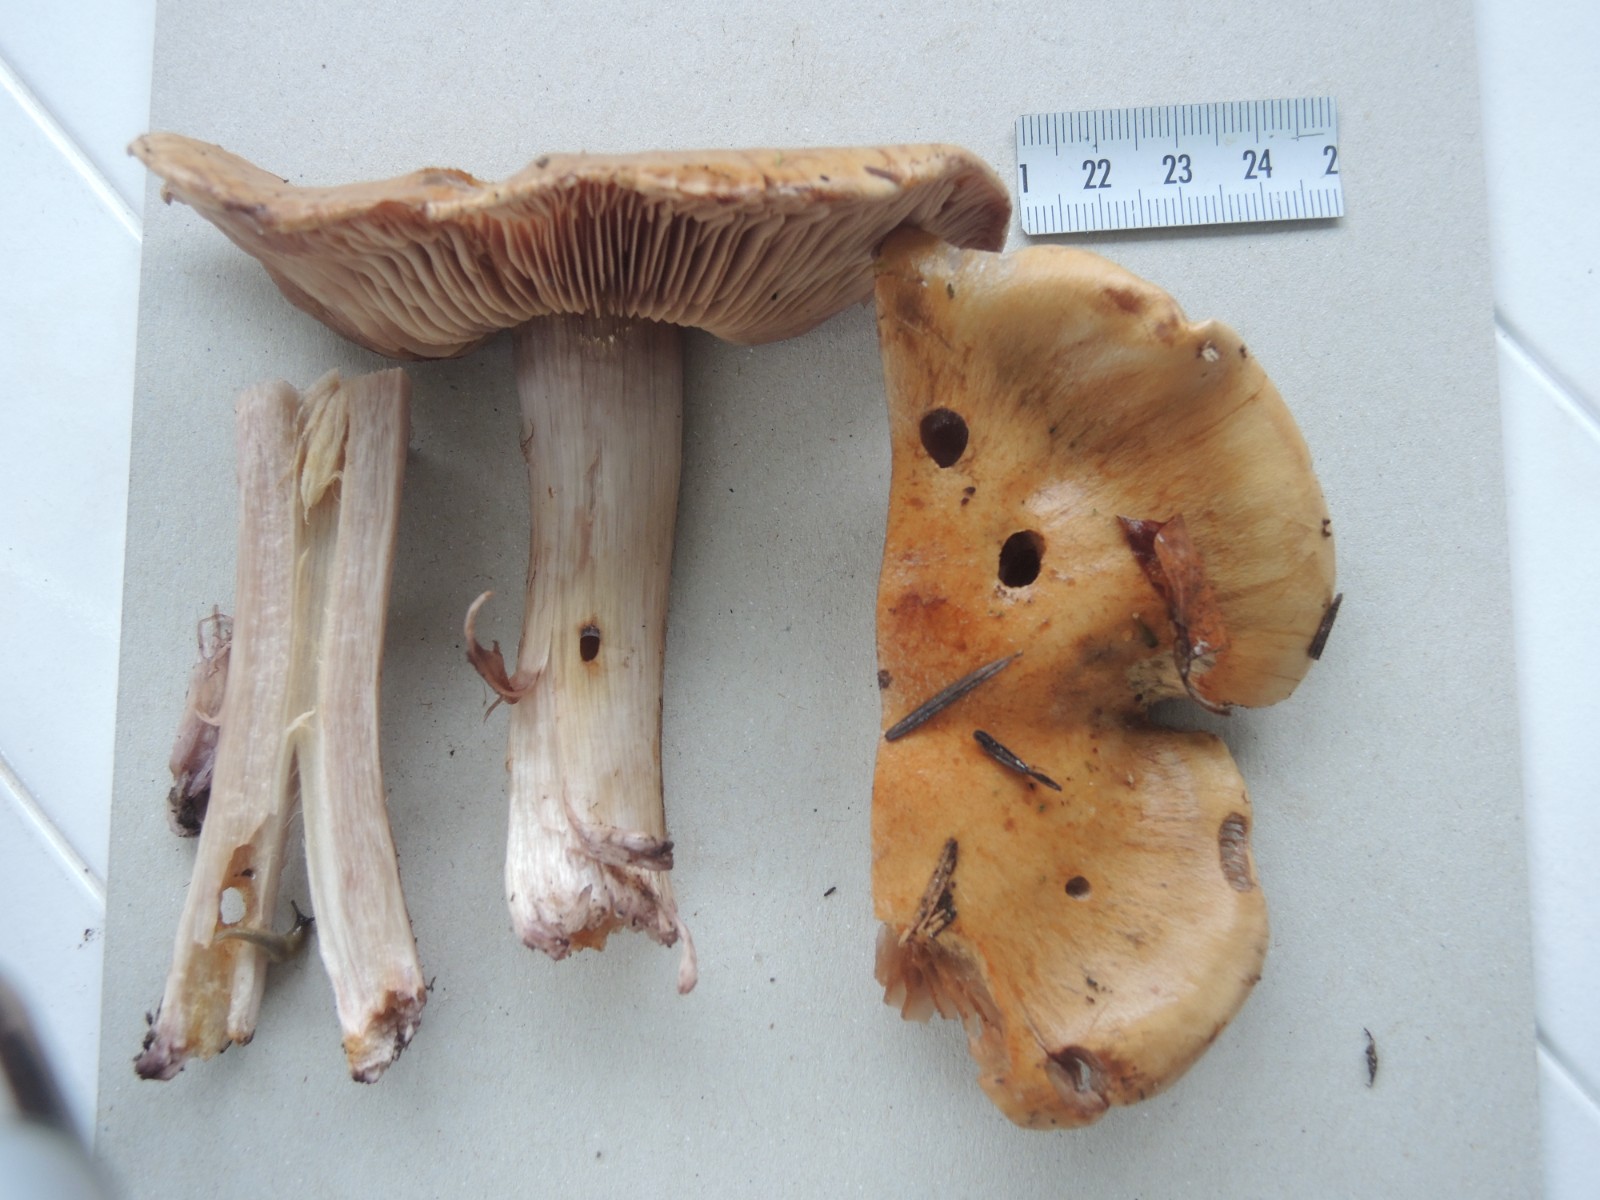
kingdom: Fungi
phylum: Basidiomycota
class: Agaricomycetes
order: Agaricales
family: Cortinariaceae
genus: Cortinarius
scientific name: Cortinarius
